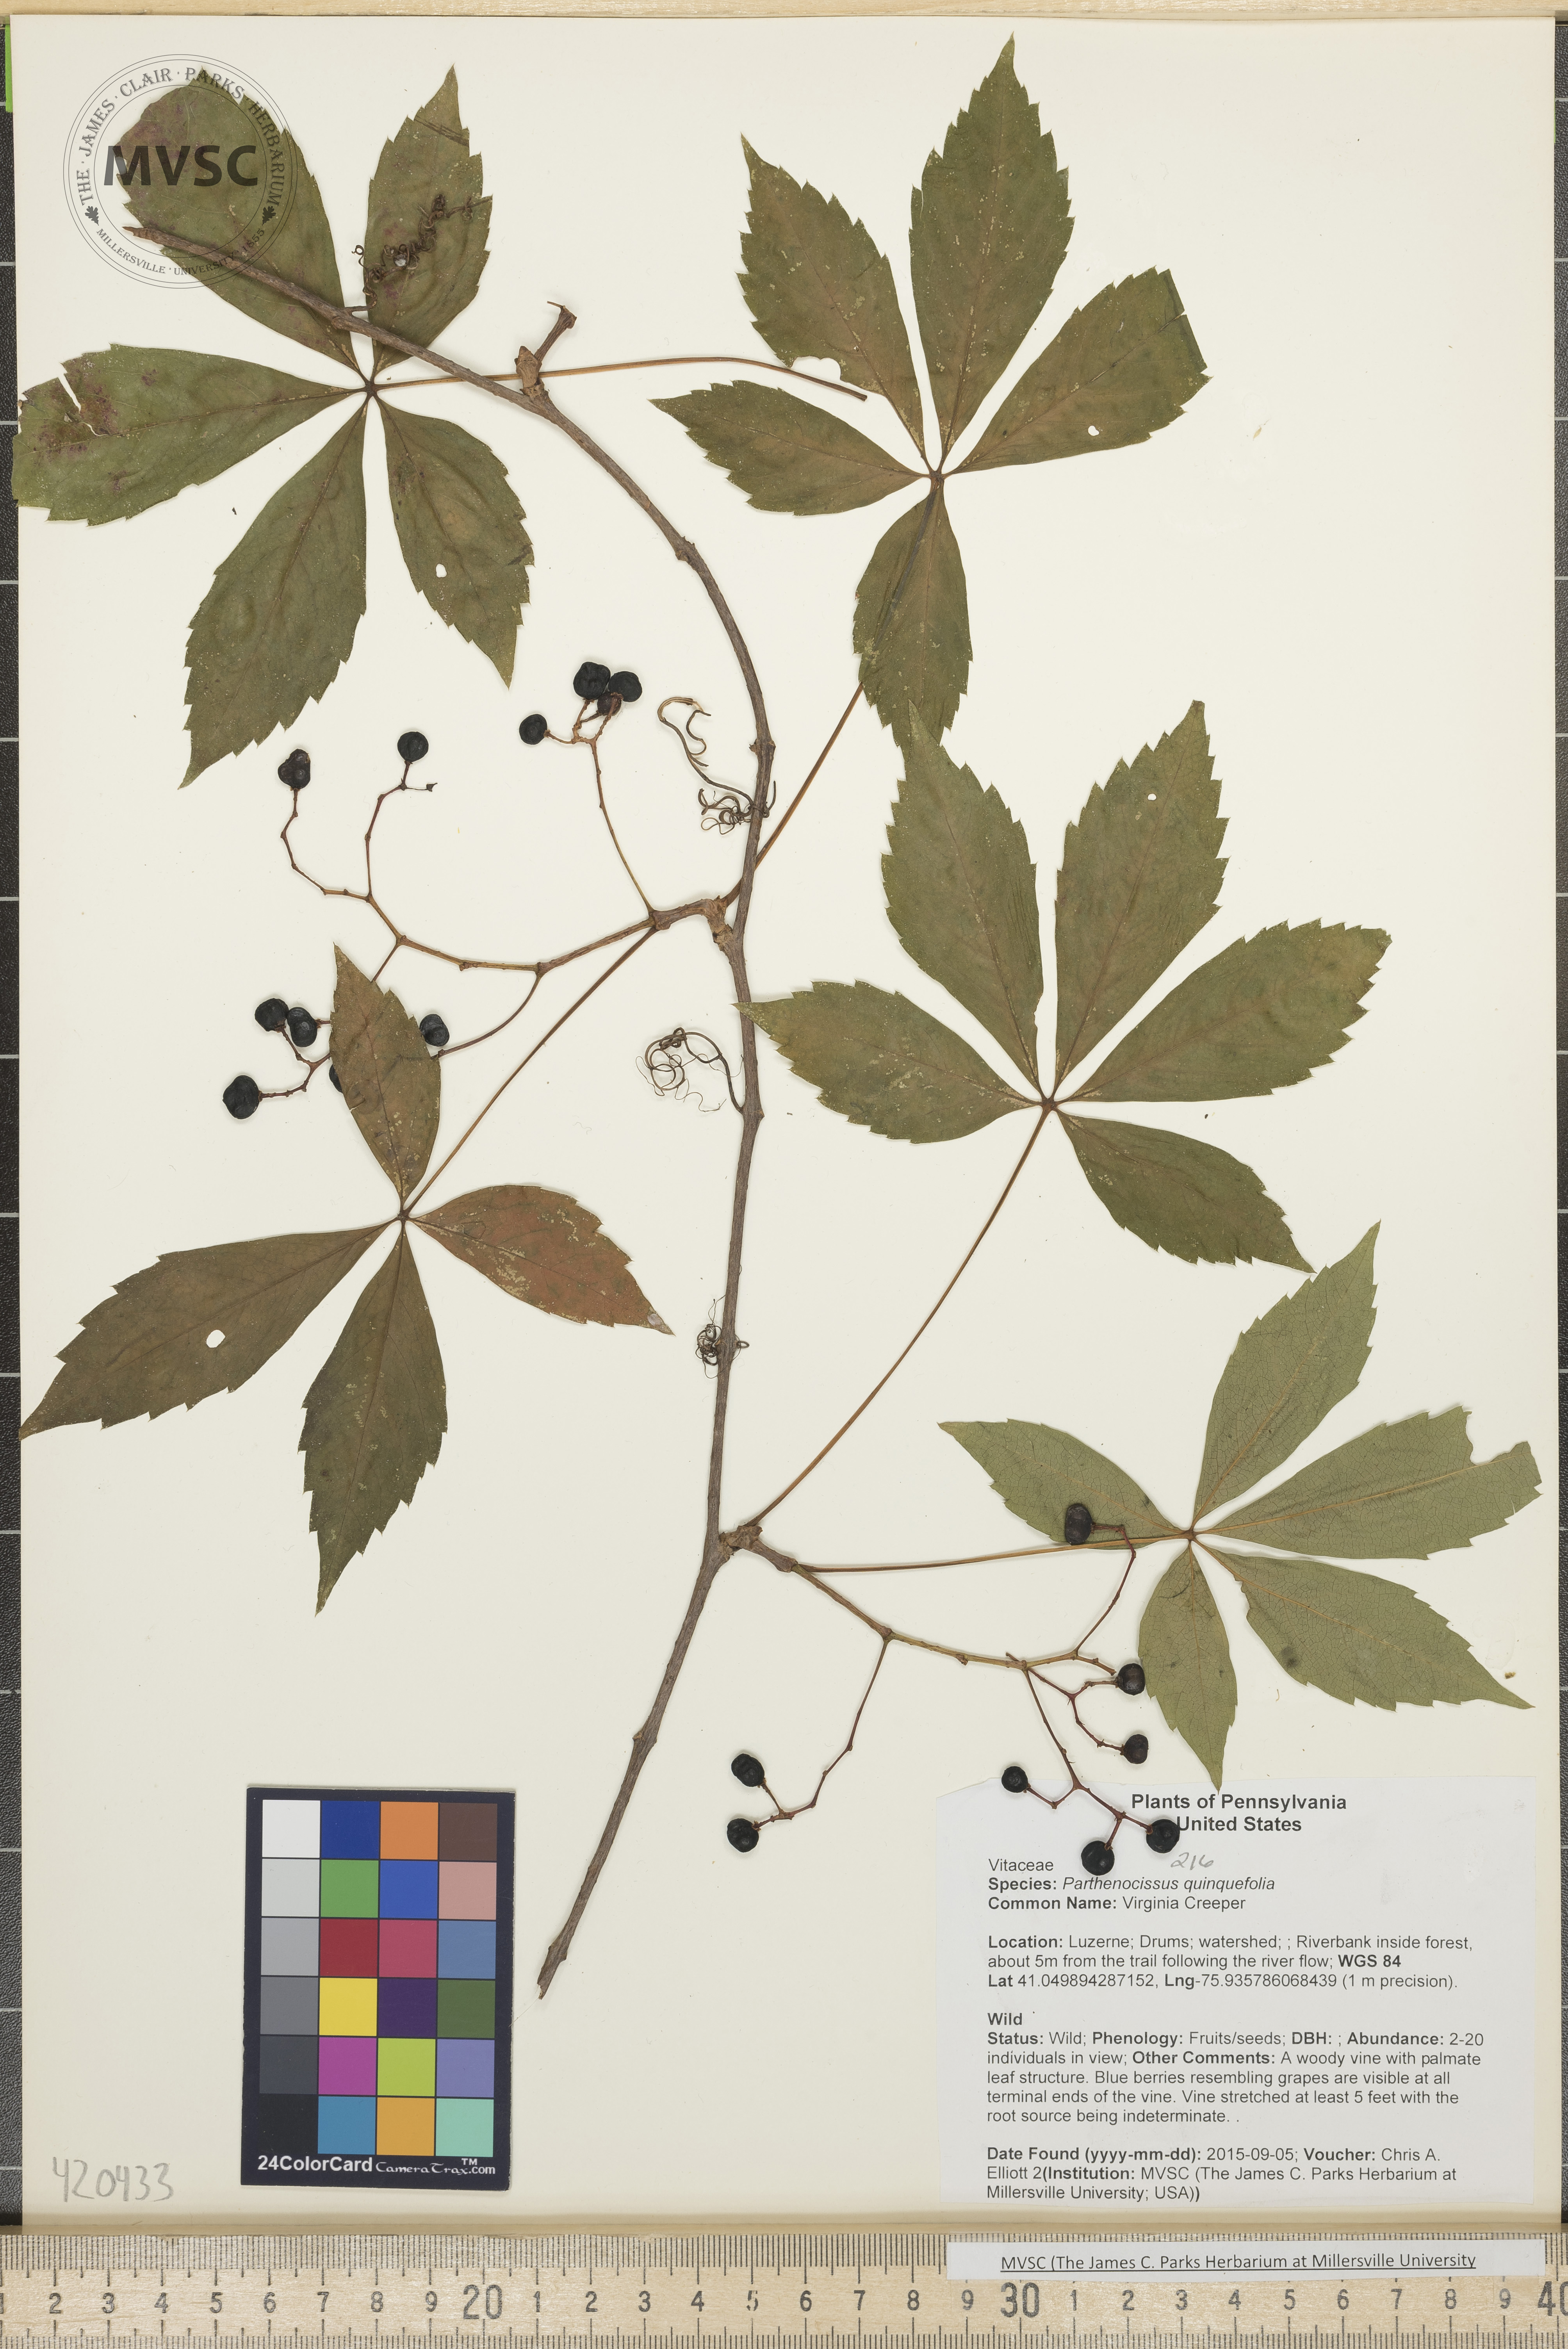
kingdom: Plantae
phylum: Tracheophyta
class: Magnoliopsida
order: Vitales
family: Vitaceae
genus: Parthenocissus
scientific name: Parthenocissus quinquefolia
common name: Virginia Creeper
